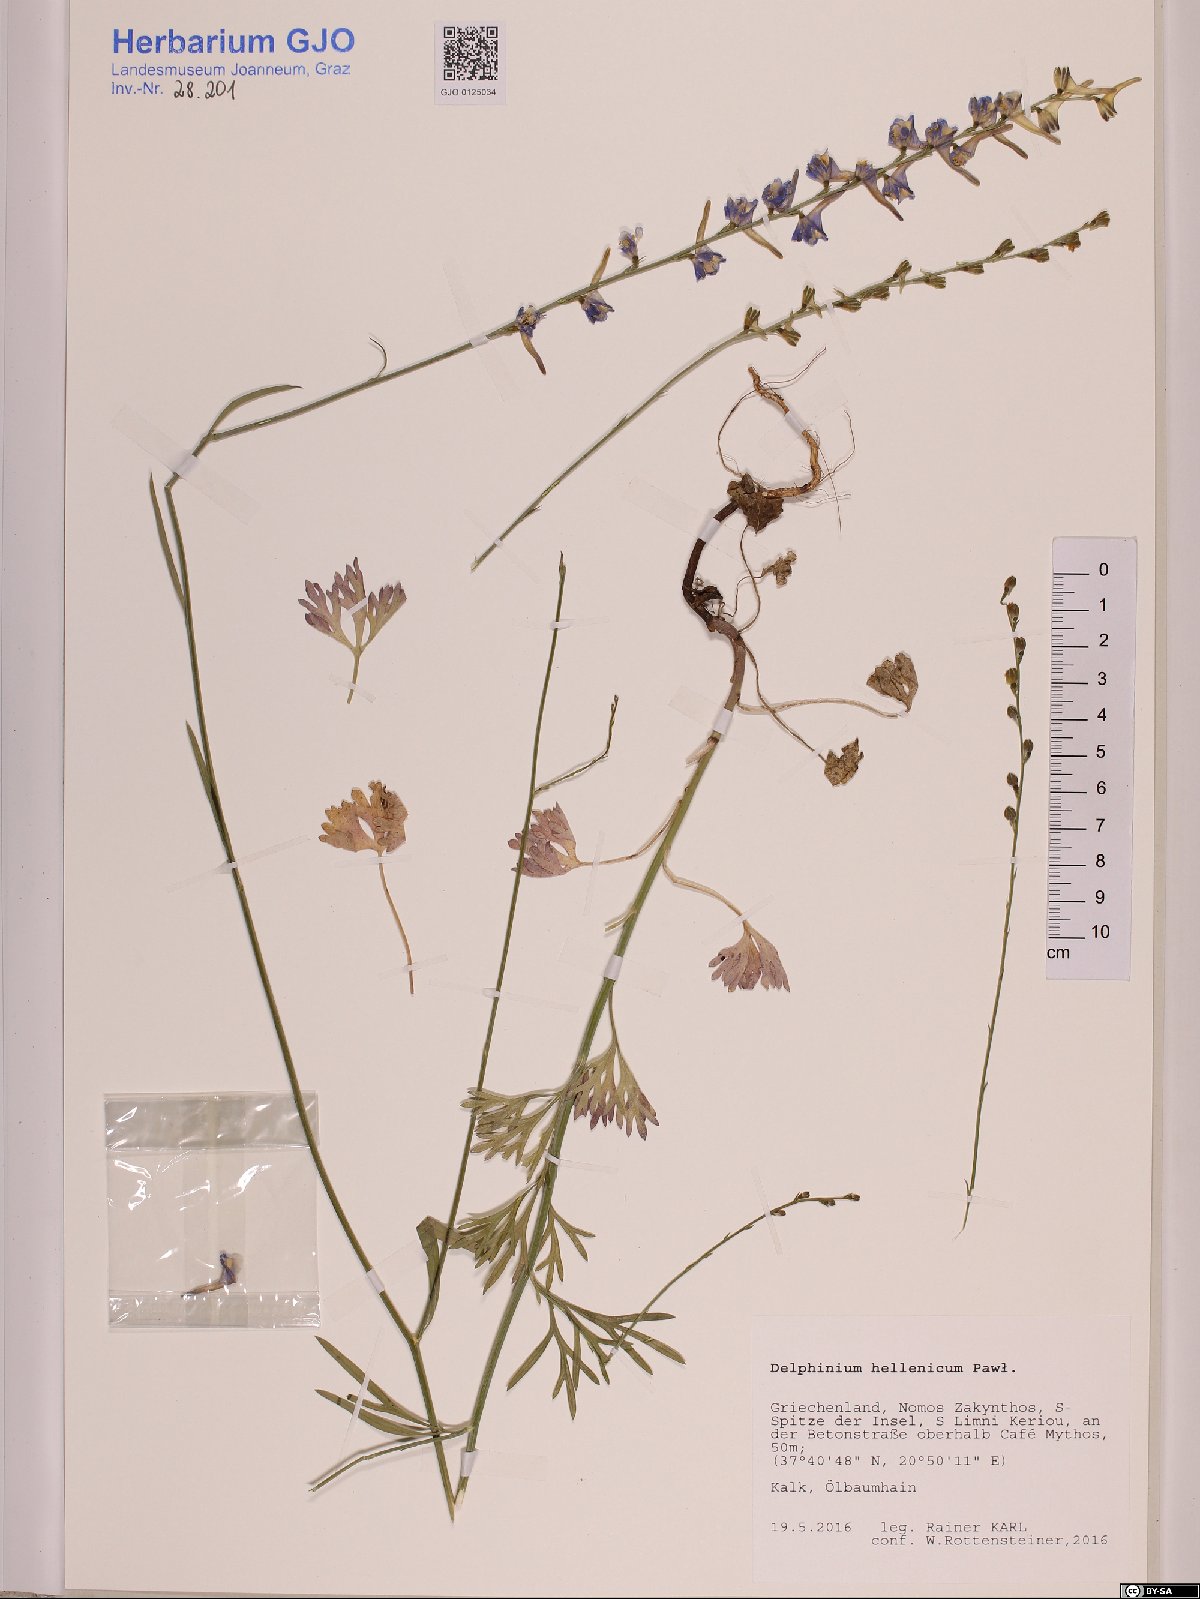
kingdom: Plantae
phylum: Tracheophyta
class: Magnoliopsida
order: Ranunculales
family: Ranunculaceae
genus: Delphinium
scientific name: Delphinium hellenicum
